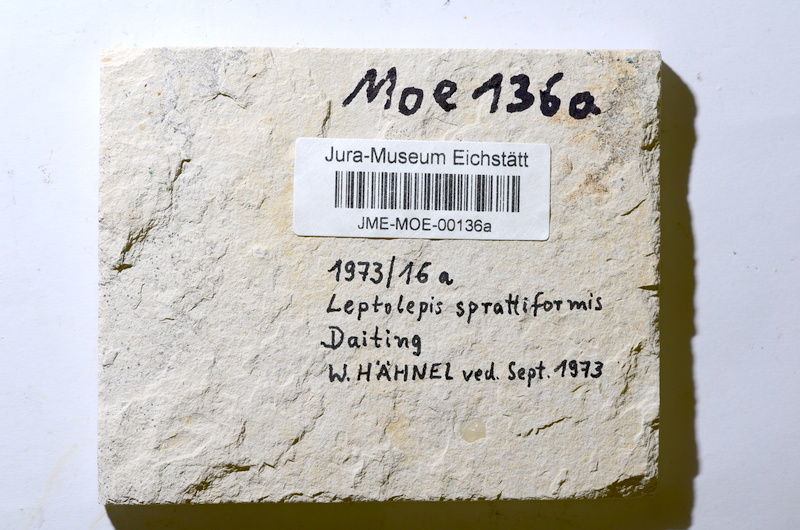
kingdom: Animalia
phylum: Chordata
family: Ascalaboidae
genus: Tharsis
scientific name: Tharsis
